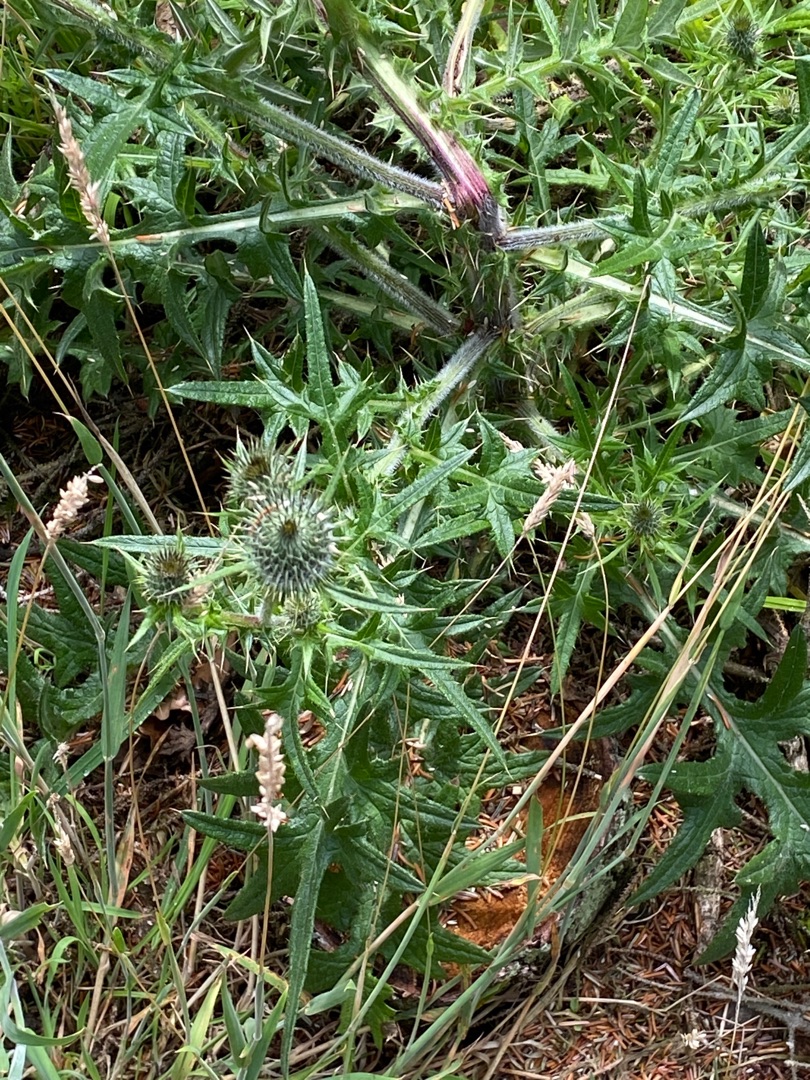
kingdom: Plantae
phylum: Tracheophyta
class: Magnoliopsida
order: Asterales
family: Asteraceae
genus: Cirsium
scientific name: Cirsium vulgare
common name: Horse-tidsel
